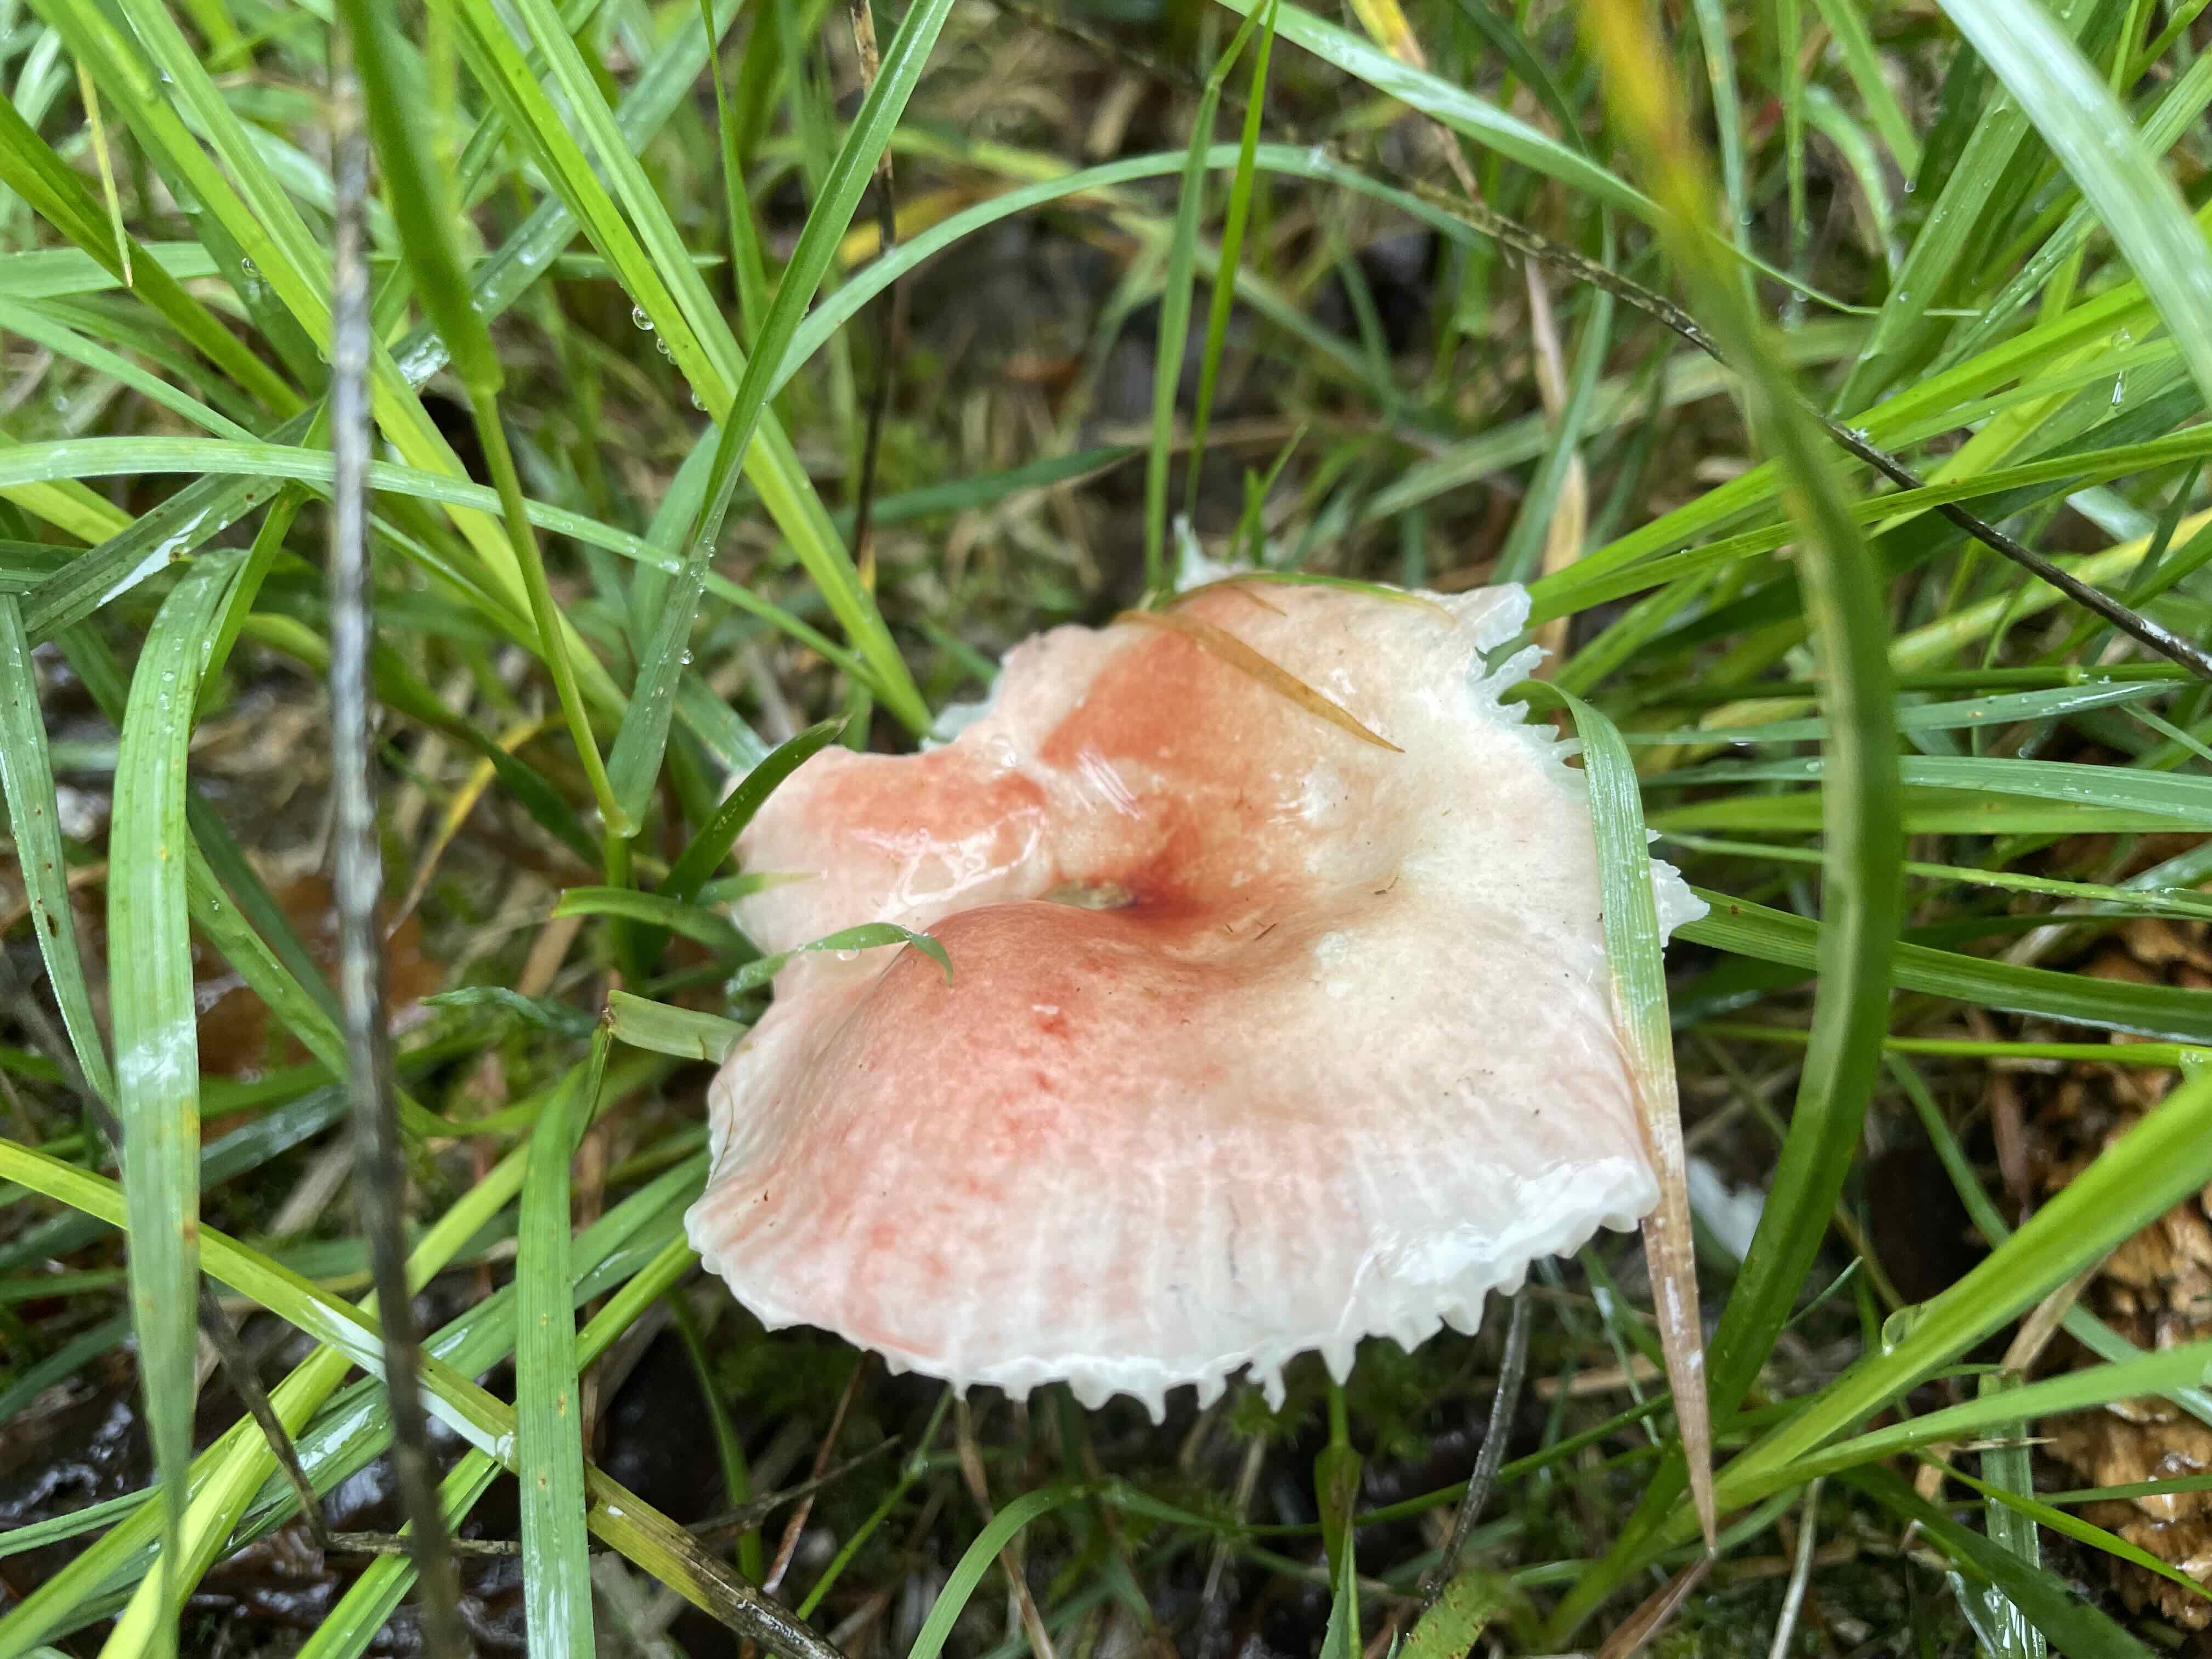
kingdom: Fungi
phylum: Basidiomycota
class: Agaricomycetes
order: Russulales
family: Russulaceae
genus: Russula
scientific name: Russula betularum
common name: bleg gift-skørhat
